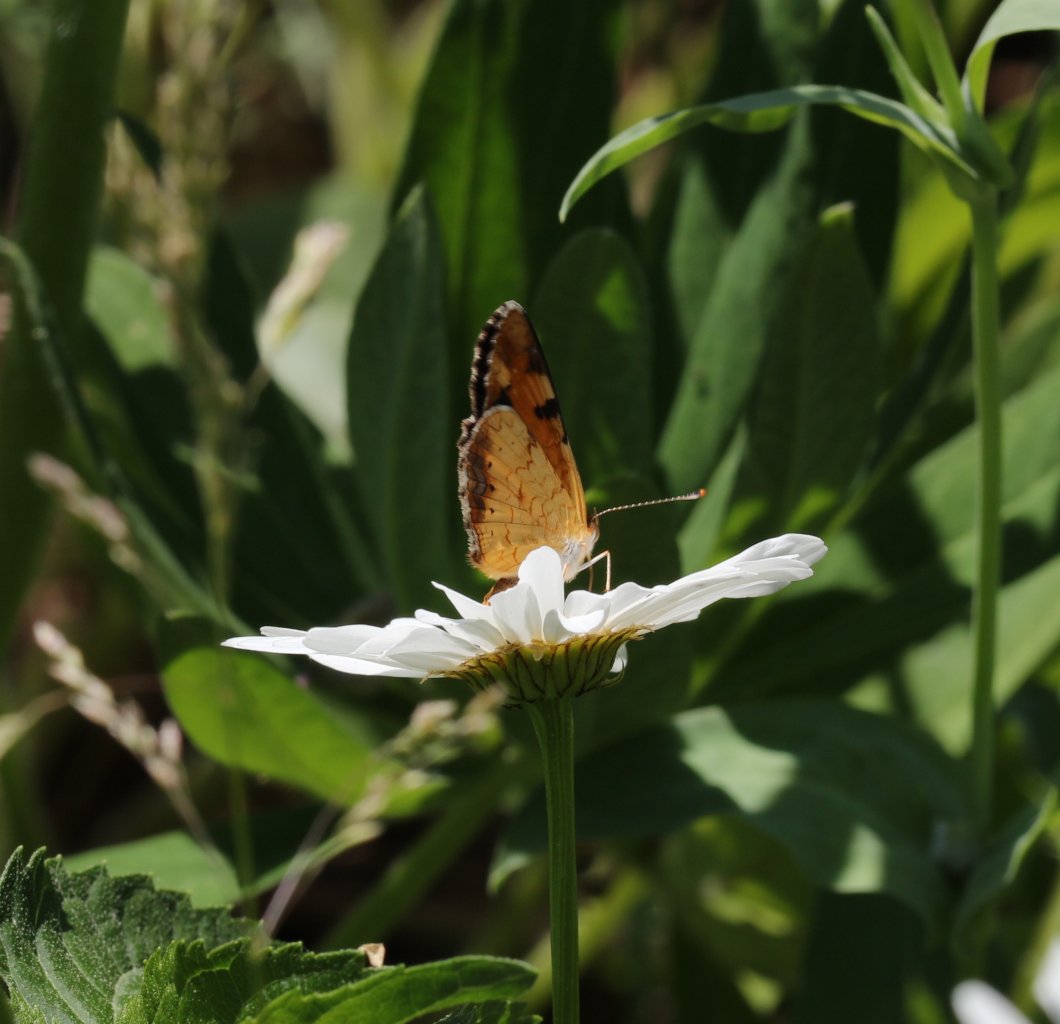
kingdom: Animalia
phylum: Arthropoda
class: Insecta
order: Lepidoptera
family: Nymphalidae
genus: Phyciodes
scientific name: Phyciodes tharos
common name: Northern Crescent
